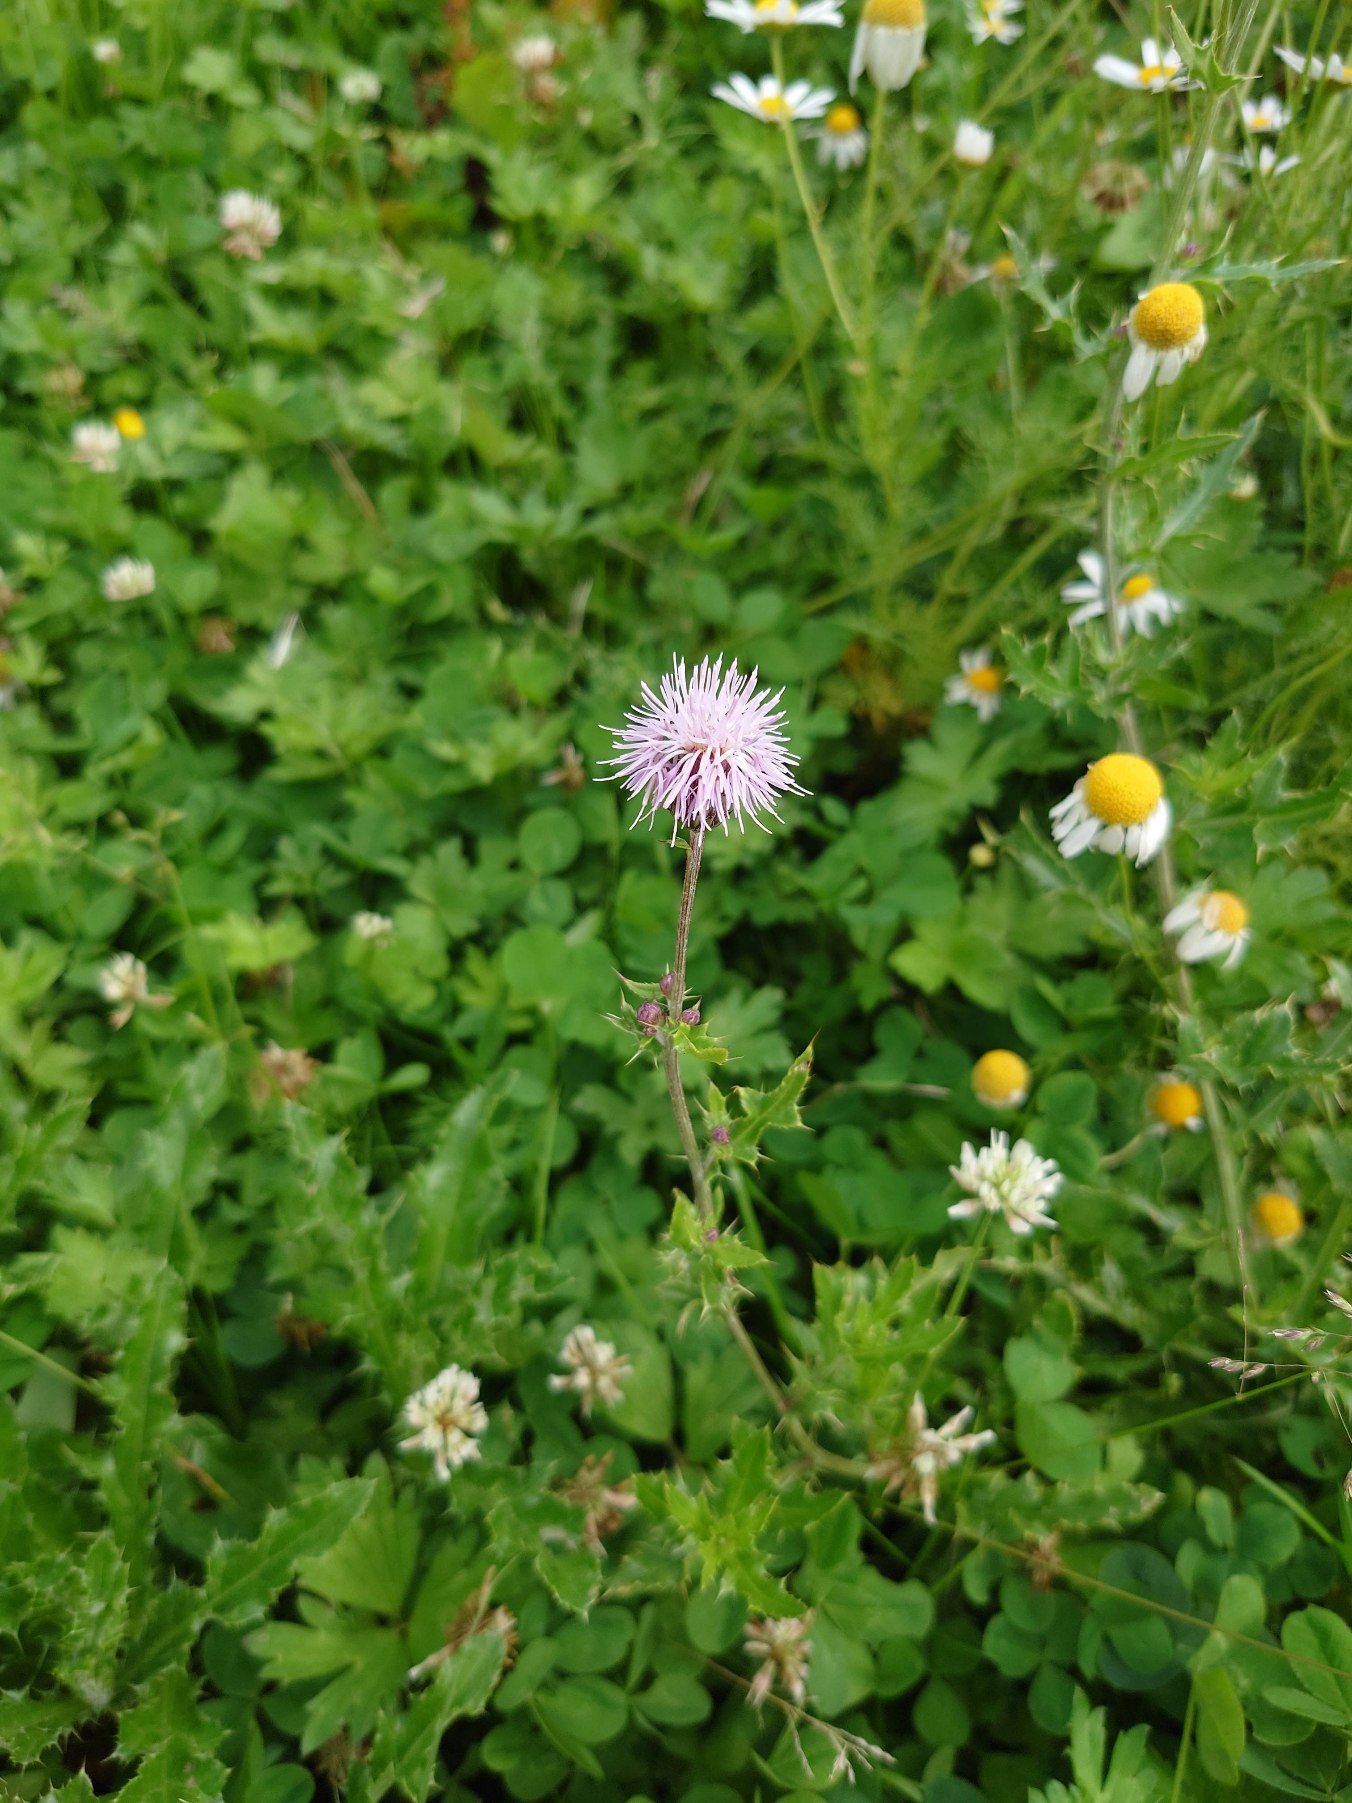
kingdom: Plantae
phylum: Tracheophyta
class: Magnoliopsida
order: Asterales
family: Asteraceae
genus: Cirsium
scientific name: Cirsium arvense
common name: Ager-tidsel
